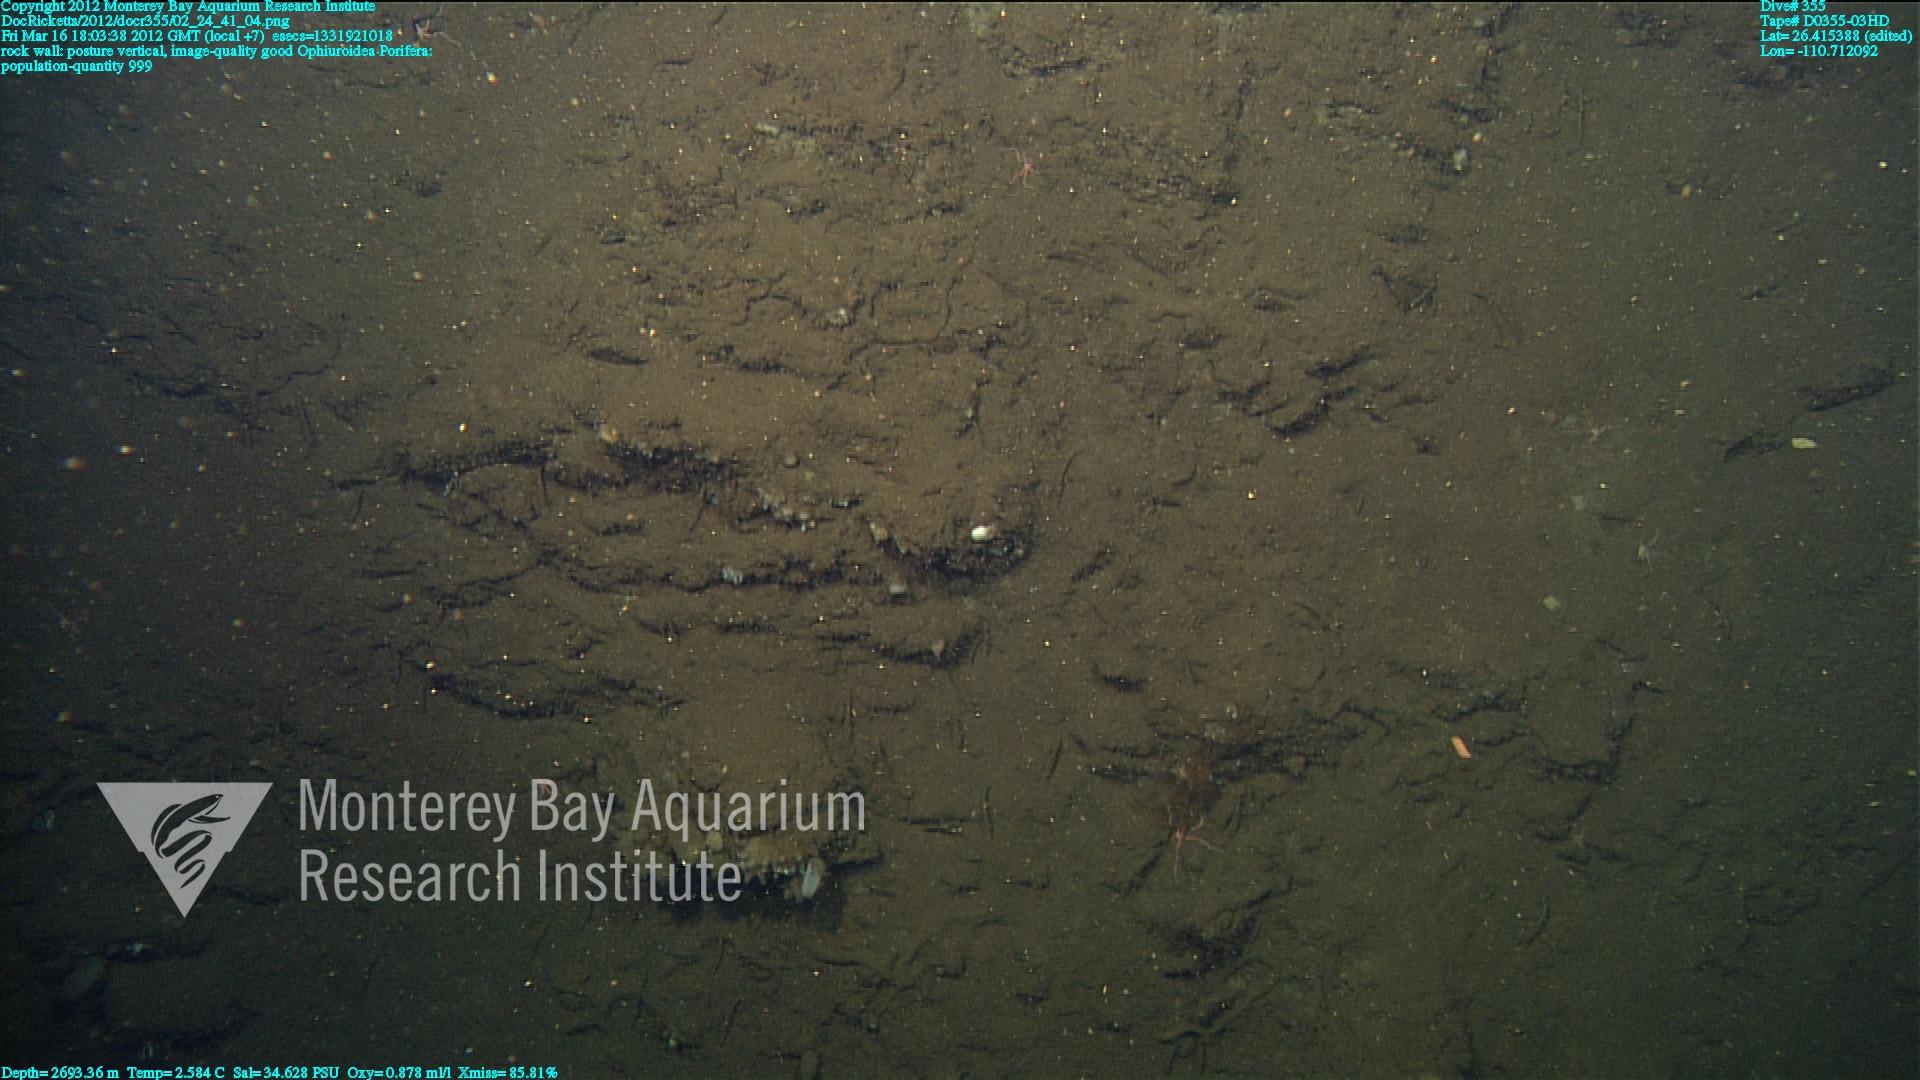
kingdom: Animalia
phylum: Porifera
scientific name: Porifera
